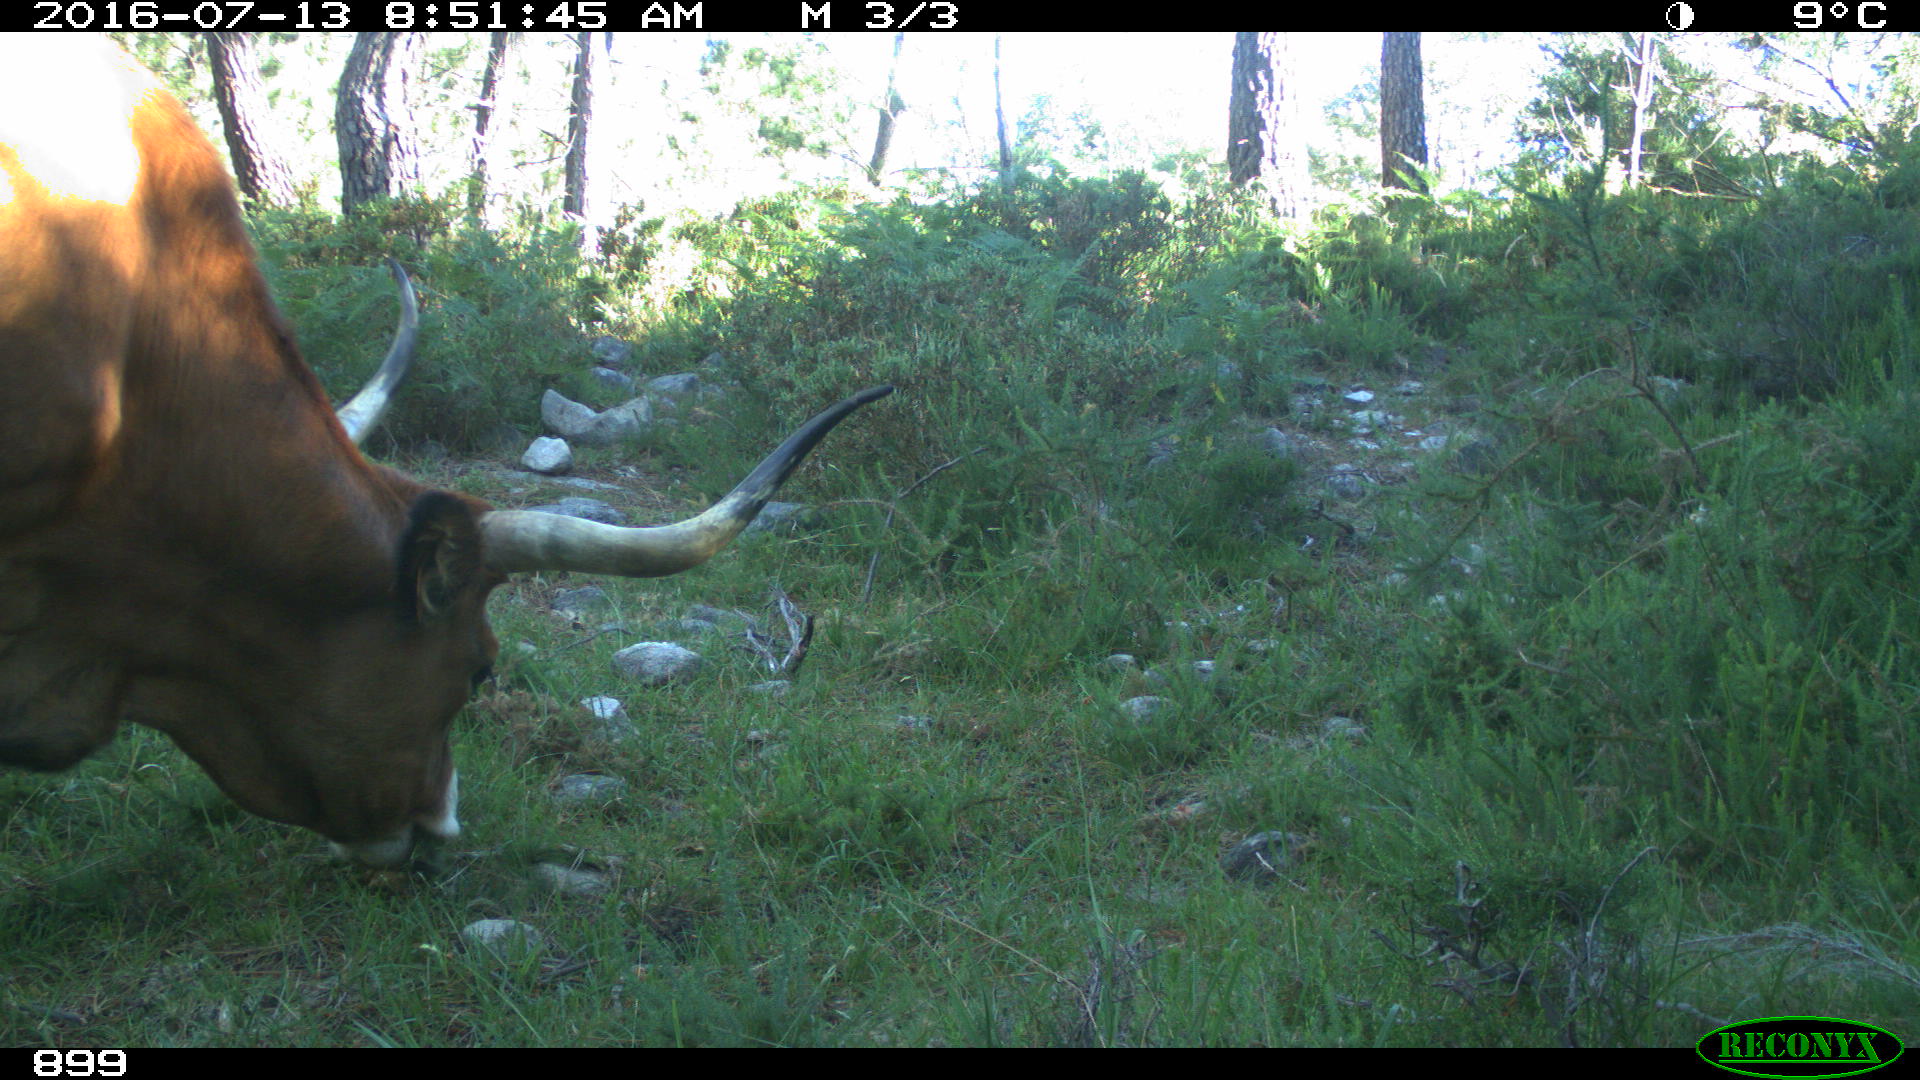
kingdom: Animalia
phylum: Chordata
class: Mammalia
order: Artiodactyla
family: Bovidae
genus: Bos
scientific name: Bos taurus
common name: Domesticated cattle
